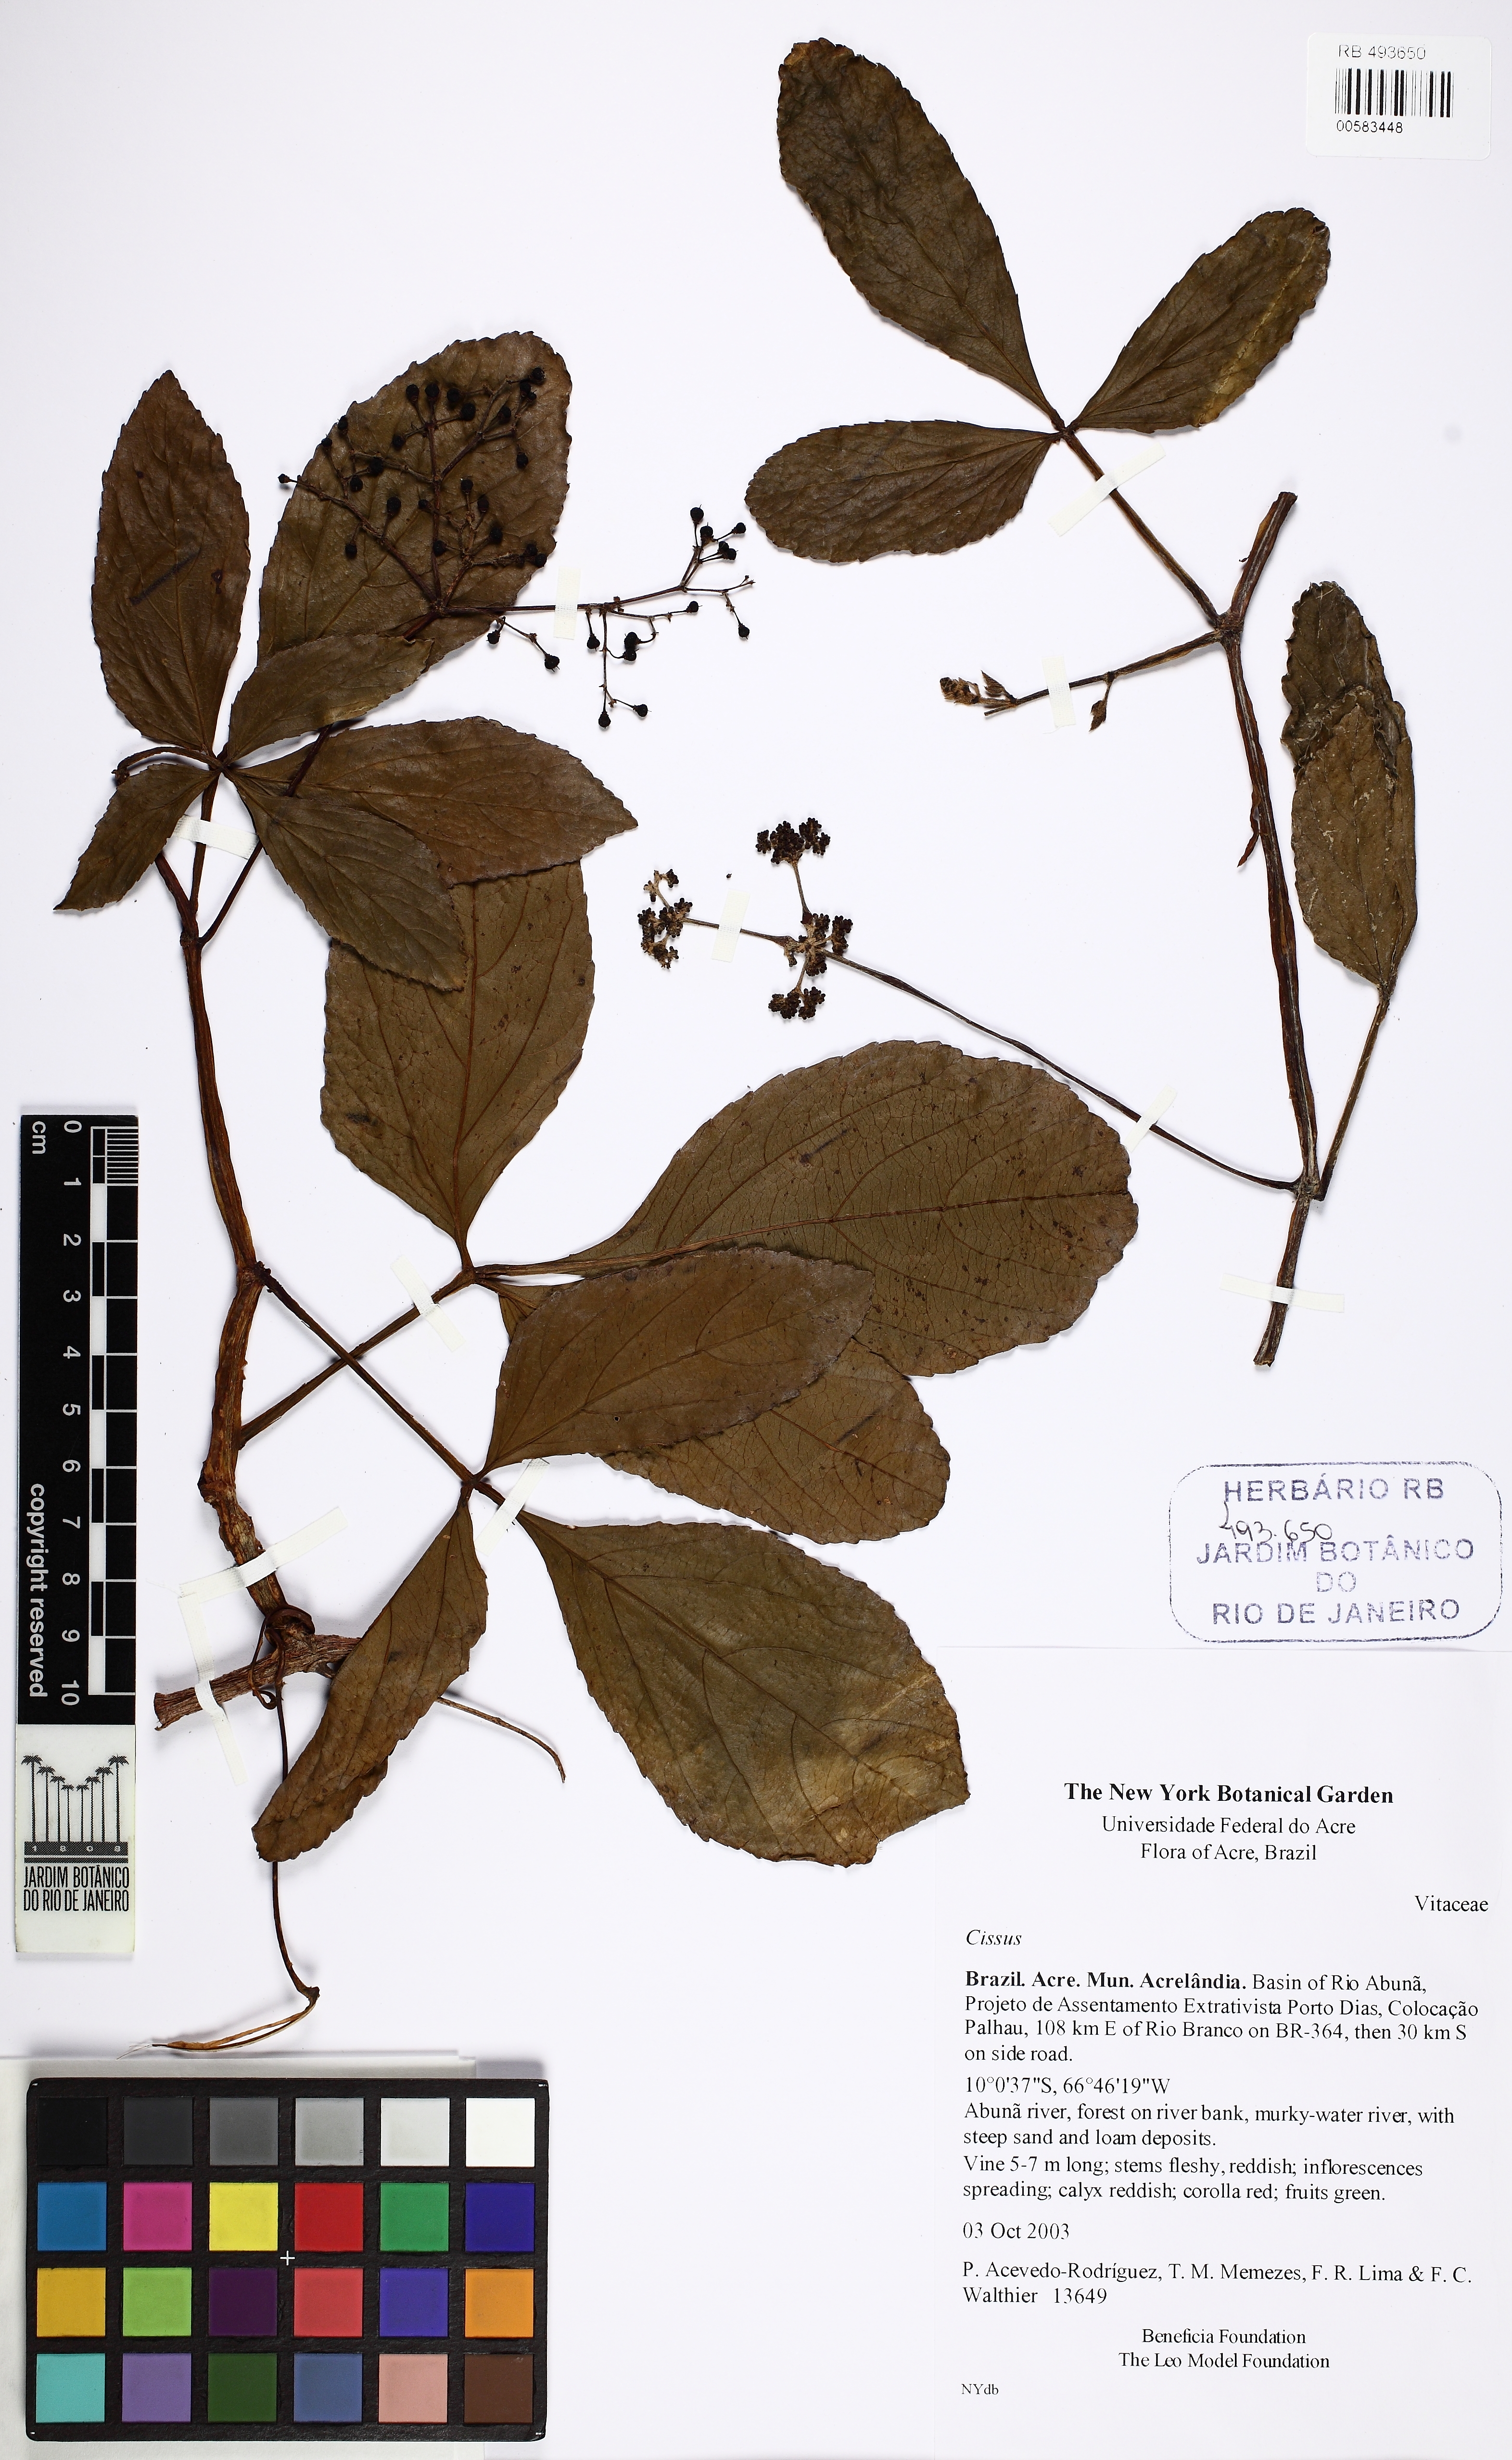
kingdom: Plantae
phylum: Tracheophyta
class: Magnoliopsida
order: Vitales
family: Vitaceae
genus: Cissus
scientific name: Cissus
